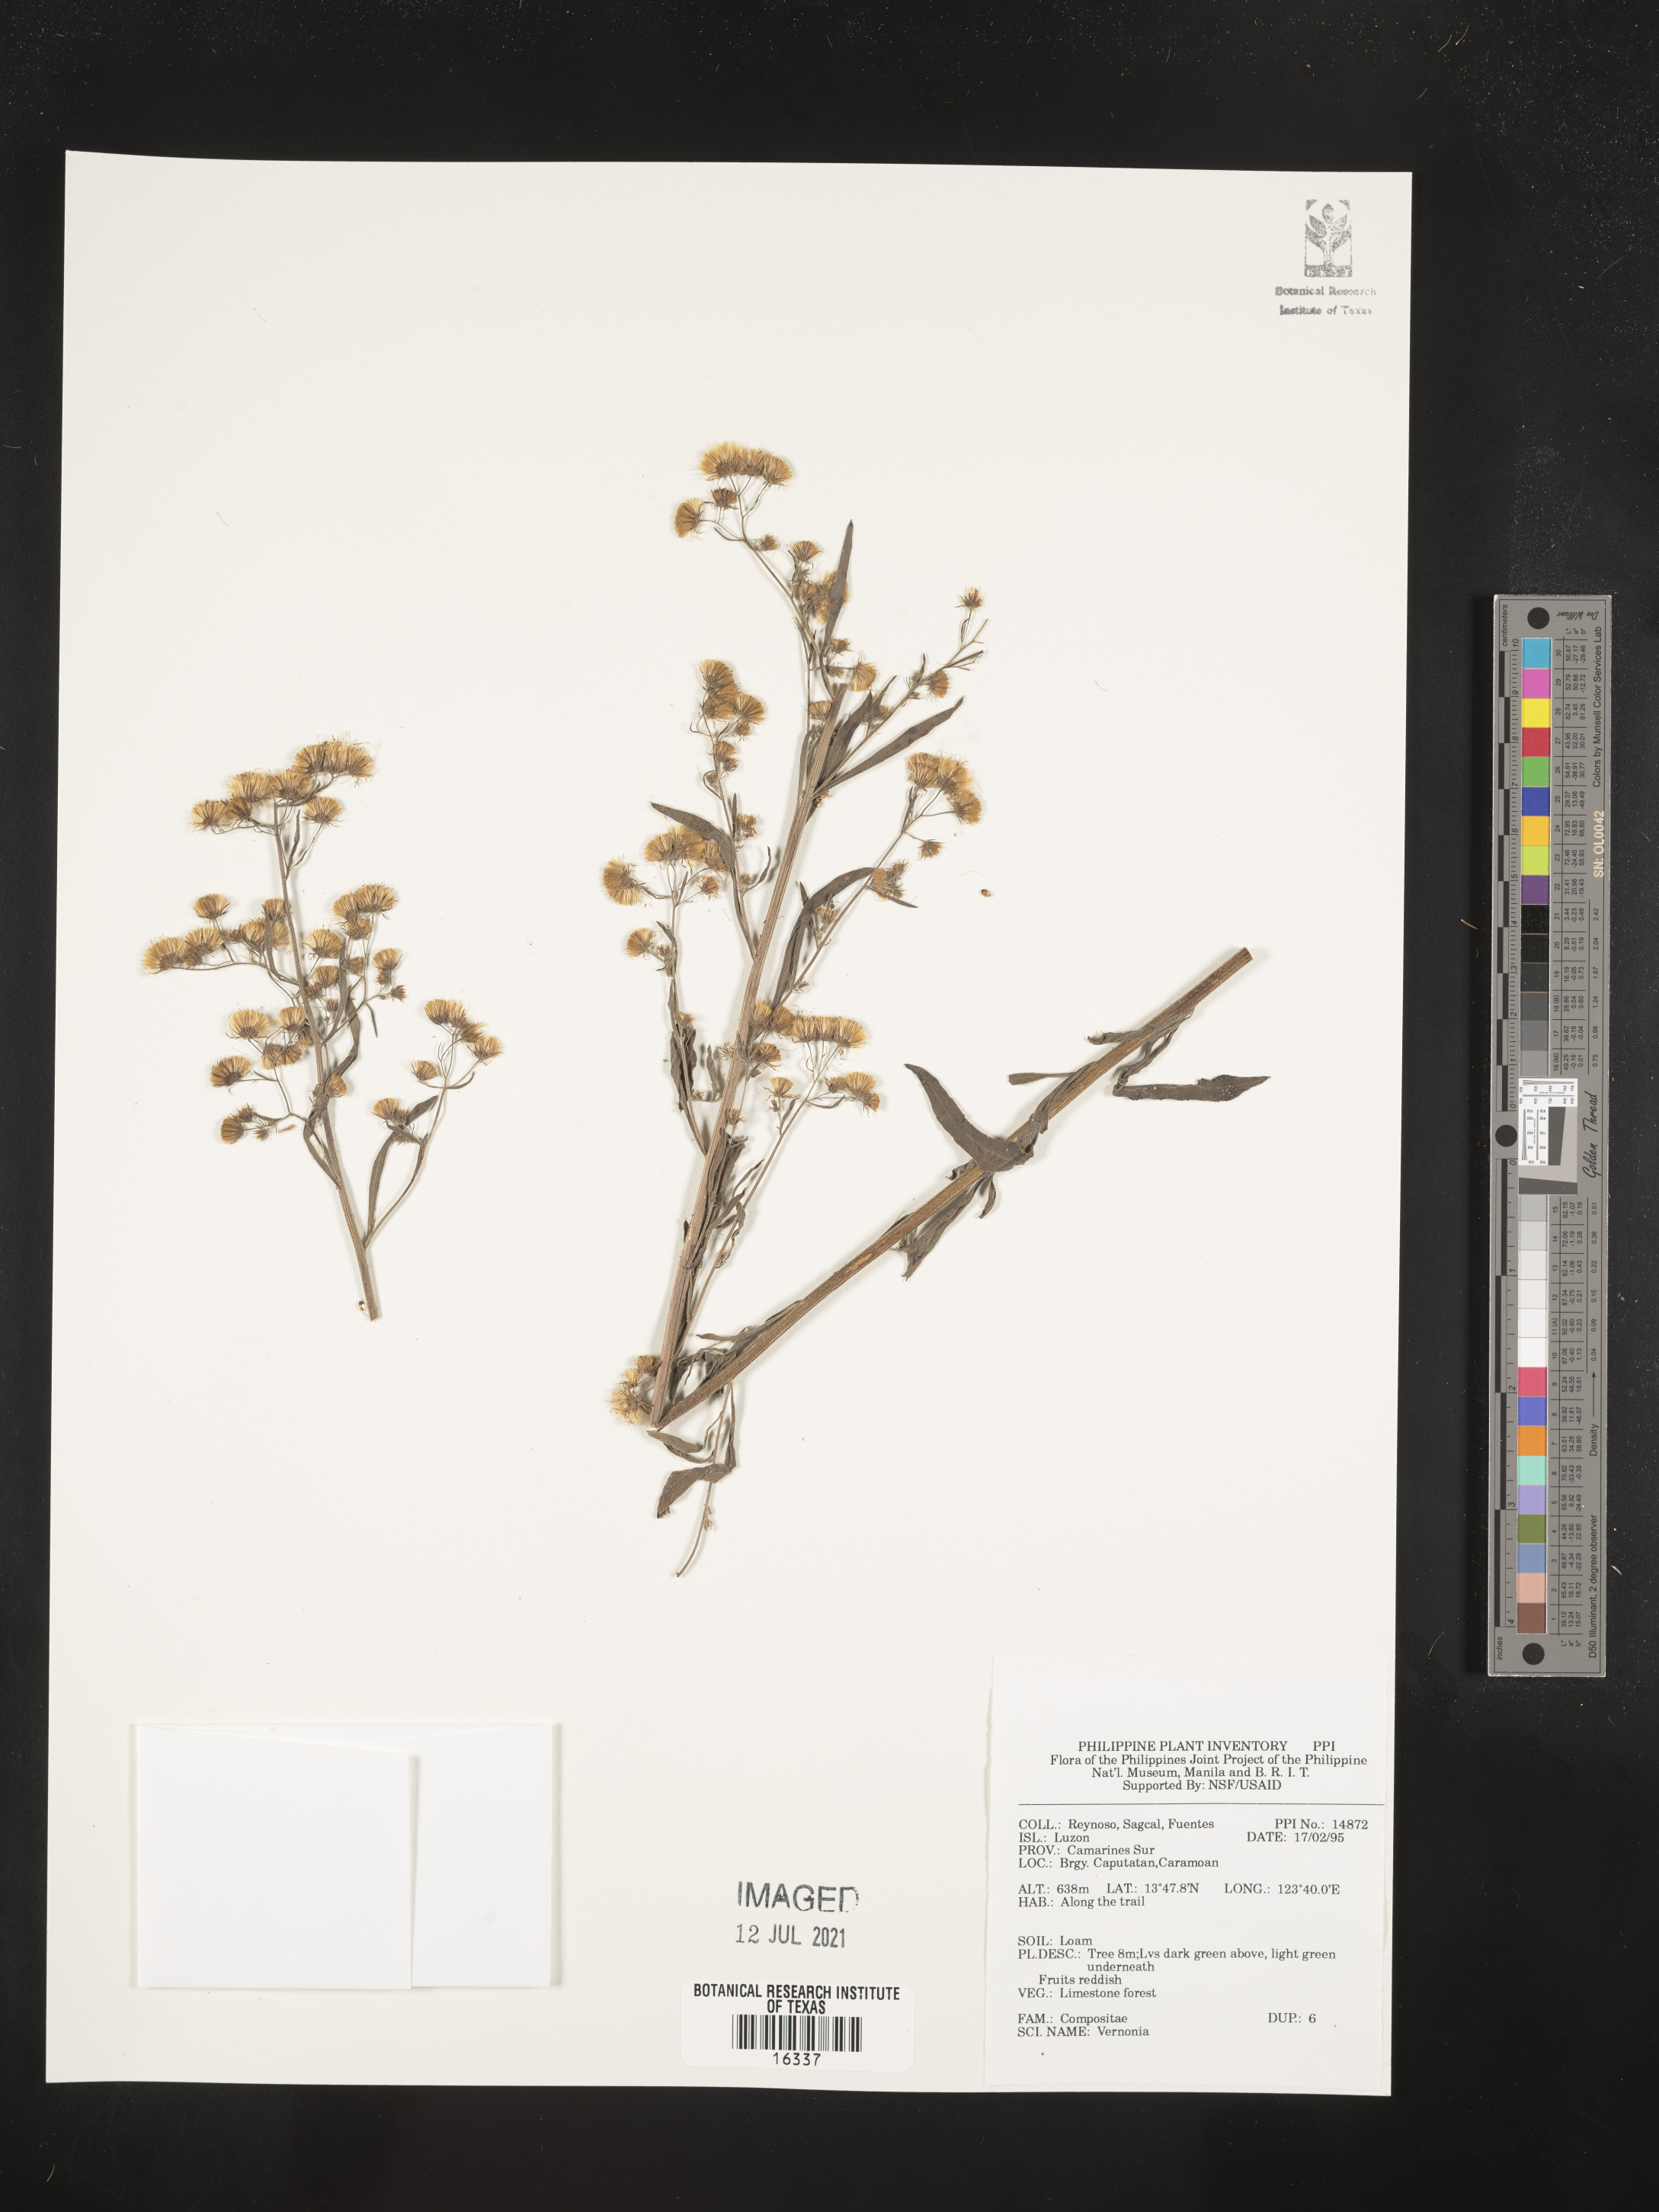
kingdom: Plantae
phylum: Tracheophyta
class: Magnoliopsida
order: Asterales
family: Asteraceae
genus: Vernonia
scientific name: Vernonia
